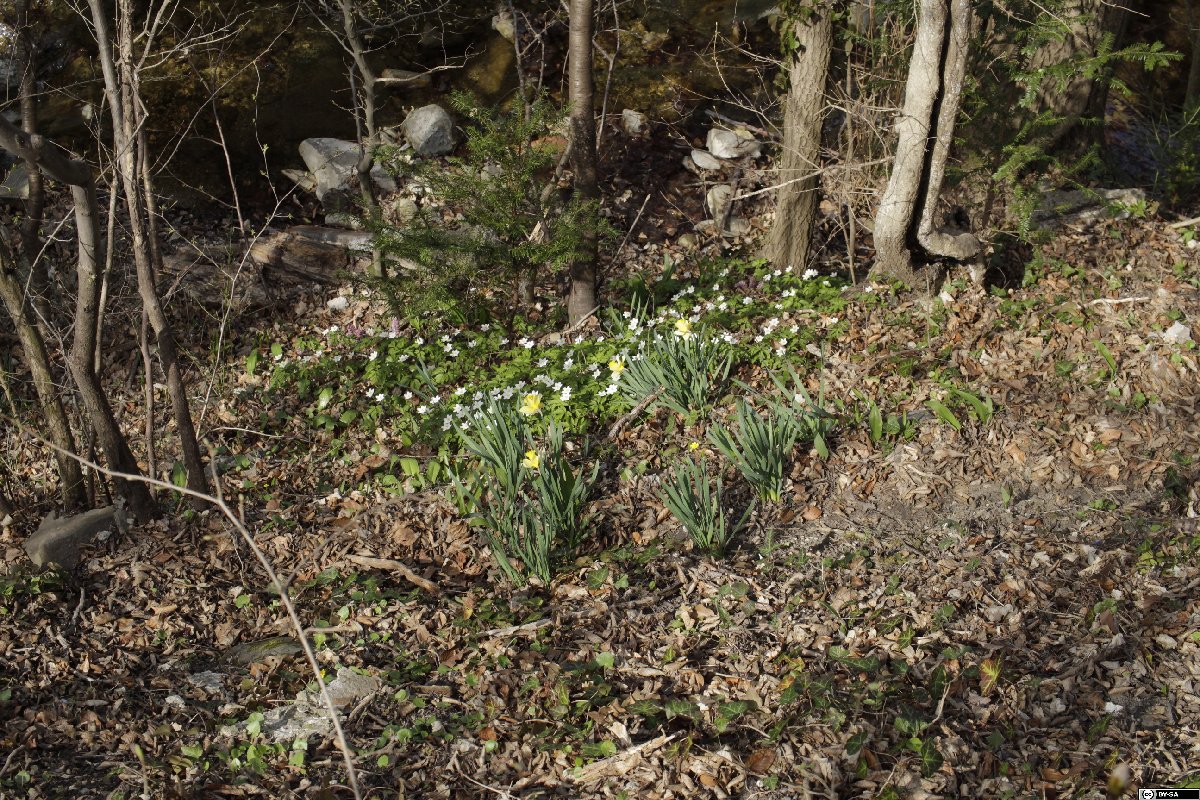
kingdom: Plantae
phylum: Tracheophyta
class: Liliopsida
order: Asparagales
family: Amaryllidaceae
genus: Narcissus
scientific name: Narcissus pseudonarcissus
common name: Daffodil
